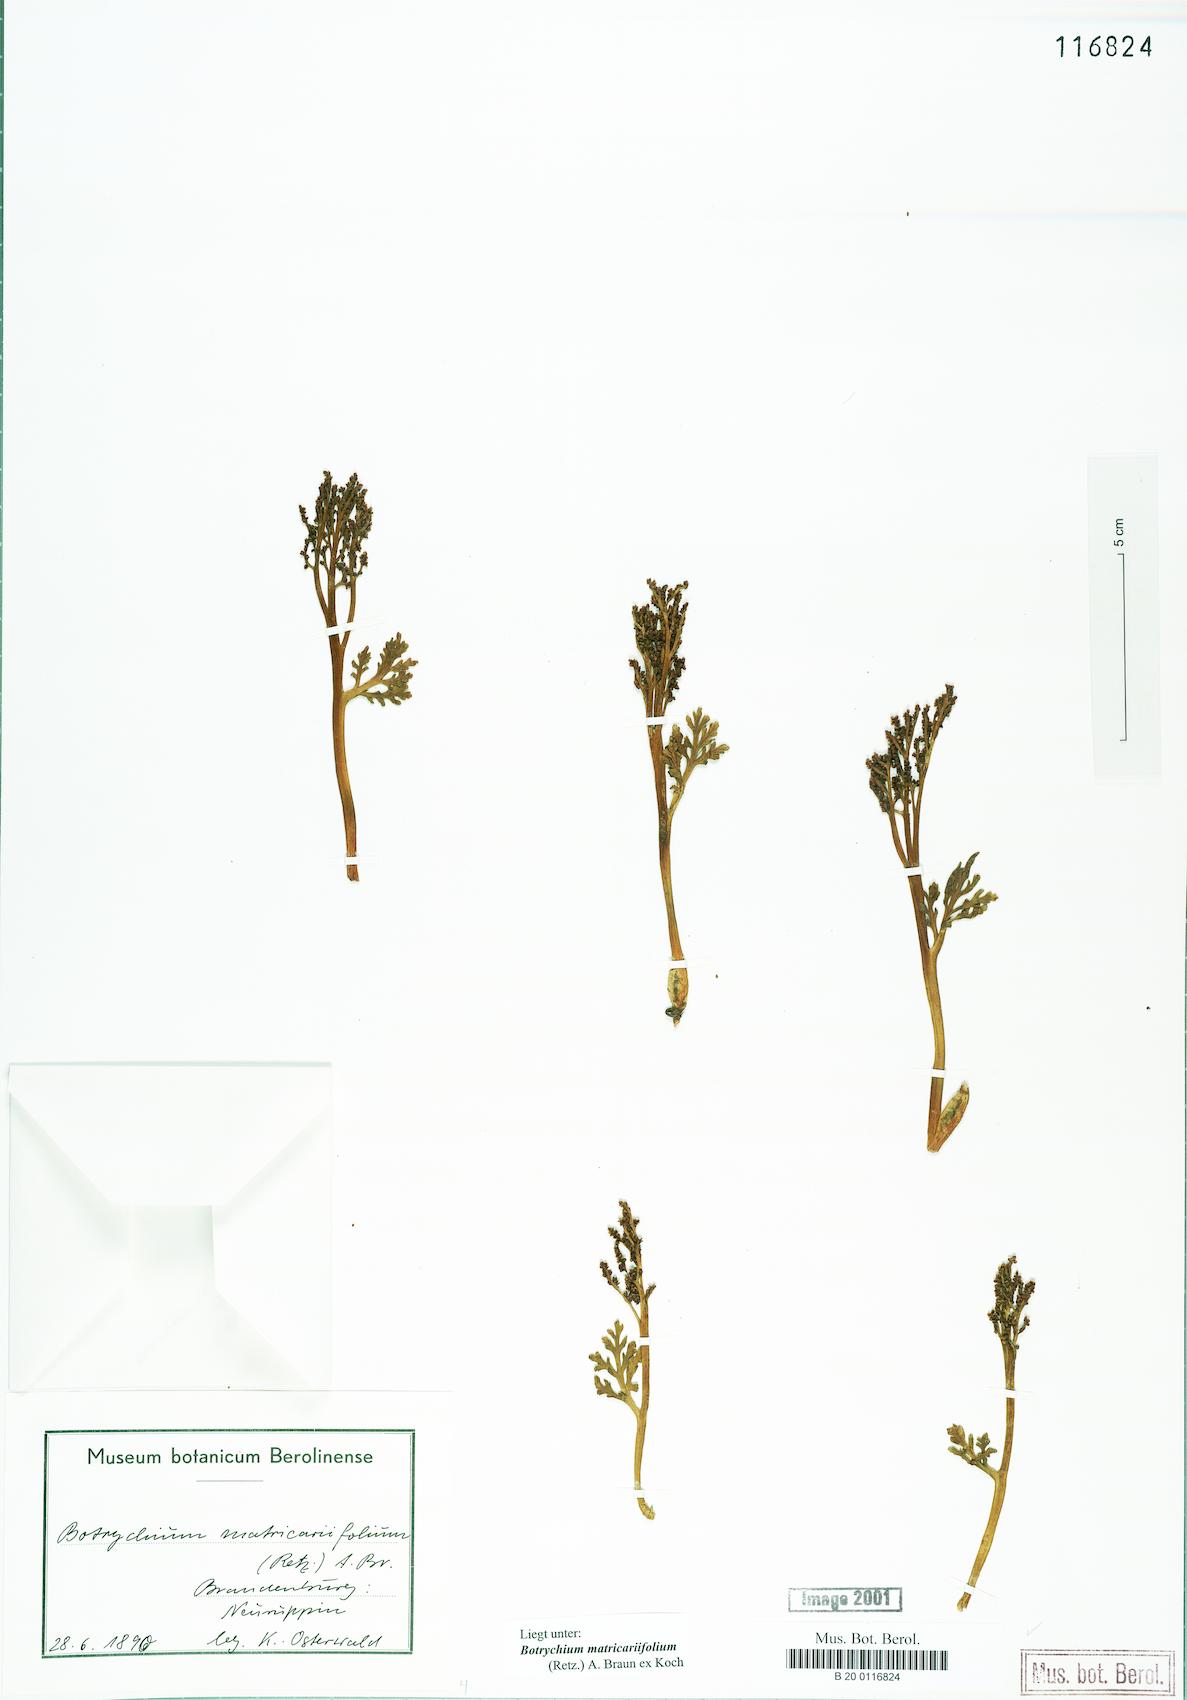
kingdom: Plantae
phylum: Tracheophyta
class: Polypodiopsida
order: Ophioglossales
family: Ophioglossaceae
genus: Botrychium
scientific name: Botrychium matricariifolium
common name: Branched moonwort
